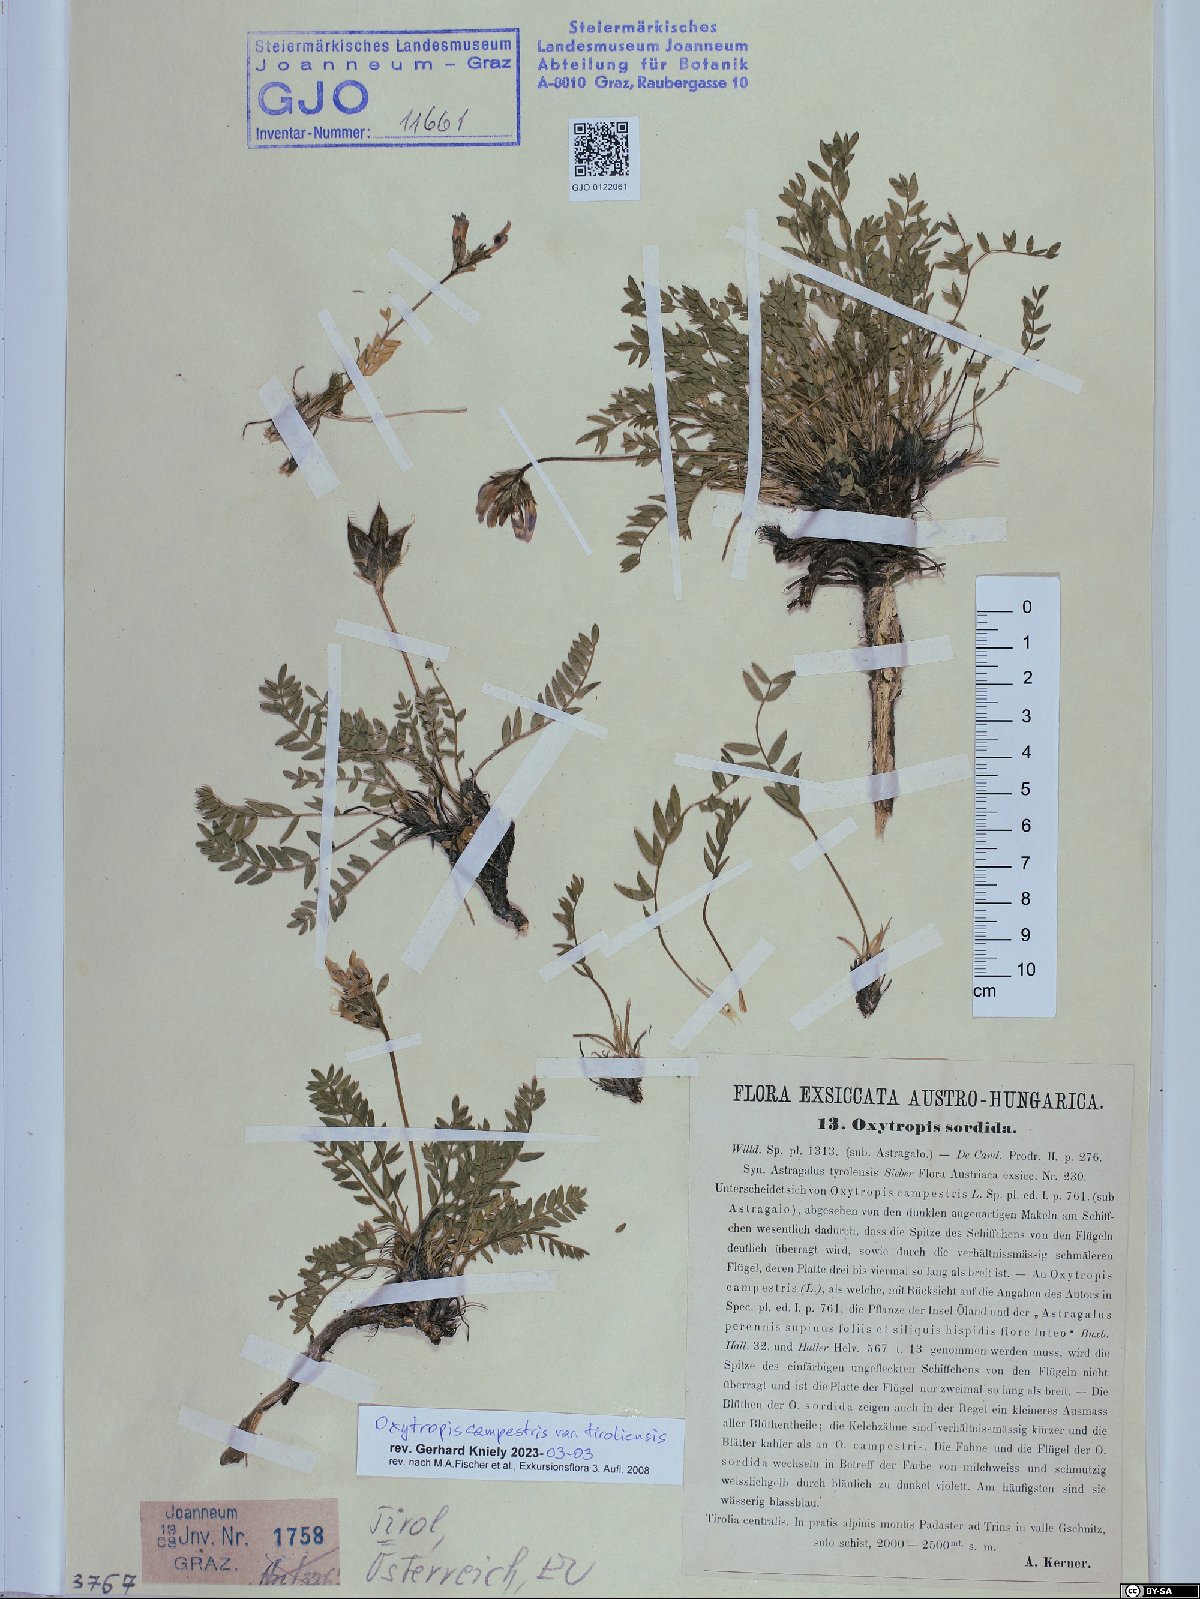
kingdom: Plantae
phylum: Tracheophyta
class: Magnoliopsida
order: Fabales
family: Fabaceae
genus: Oxytropis
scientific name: Oxytropis campestris
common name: Field locoweed
